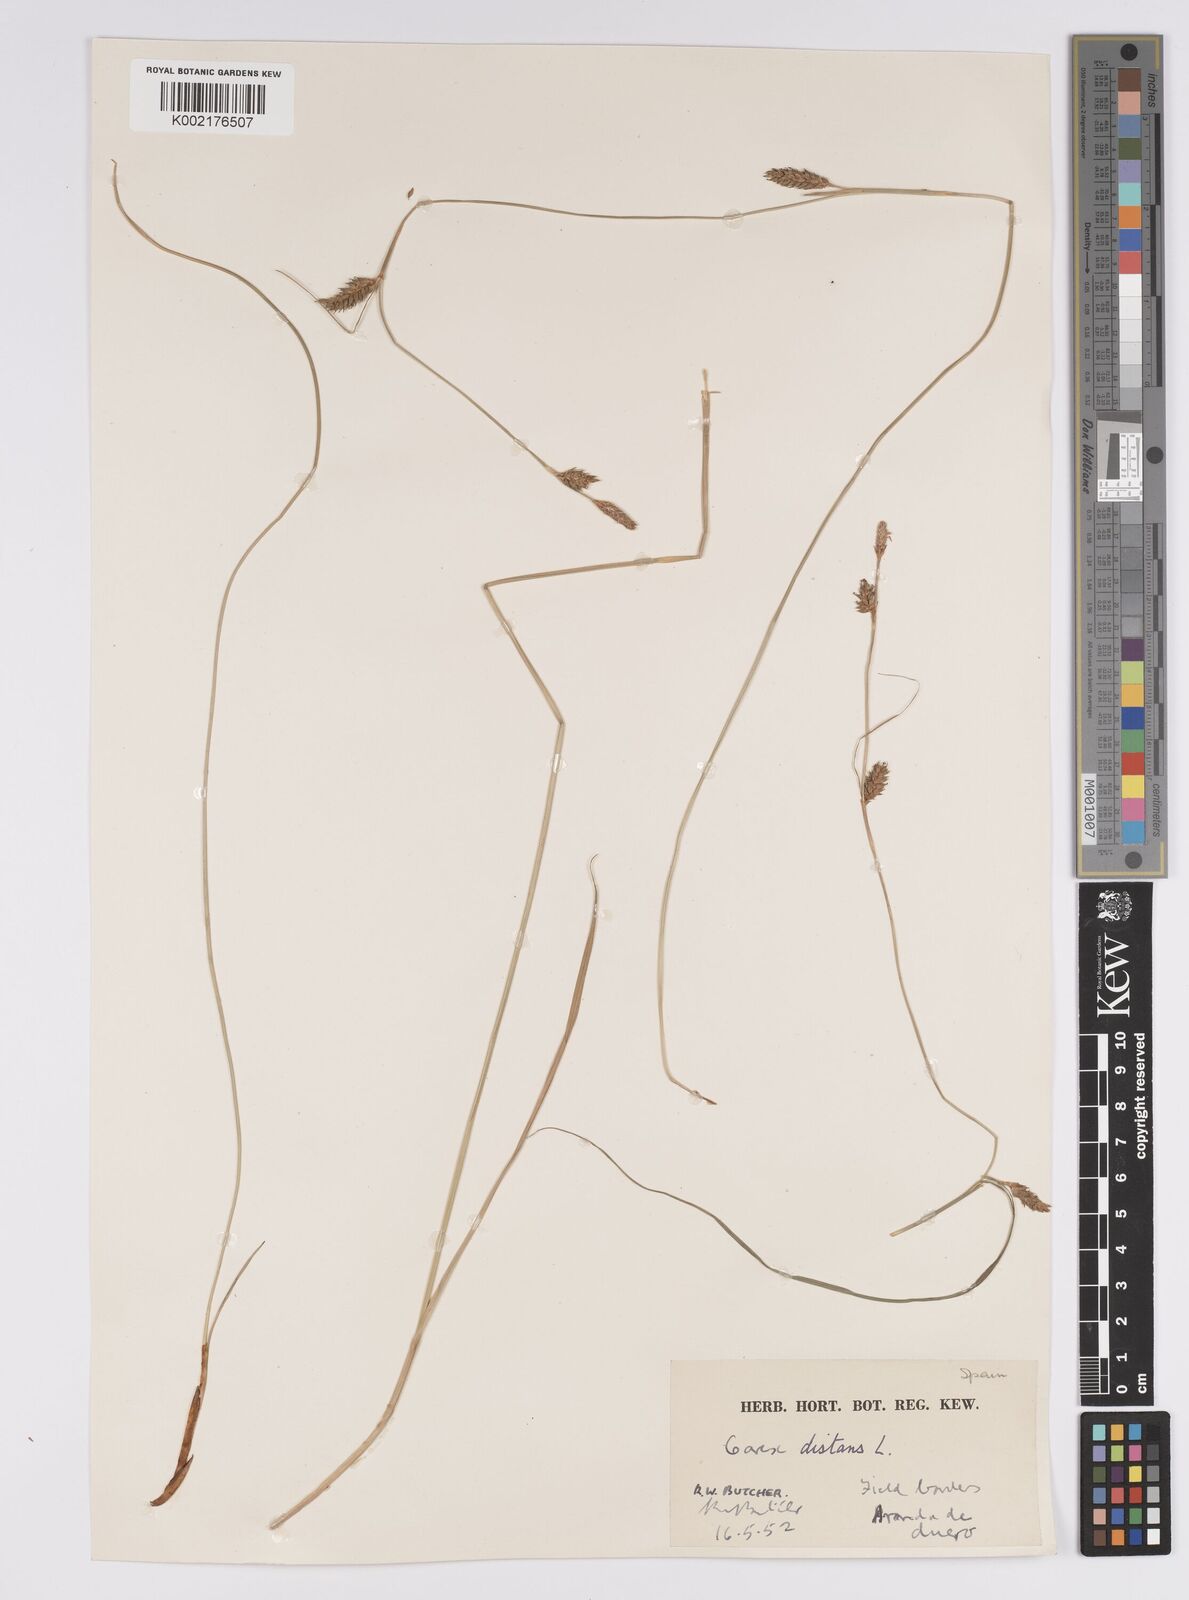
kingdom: Plantae
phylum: Tracheophyta
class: Liliopsida
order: Poales
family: Cyperaceae
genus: Carex
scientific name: Carex distans
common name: Distant sedge
